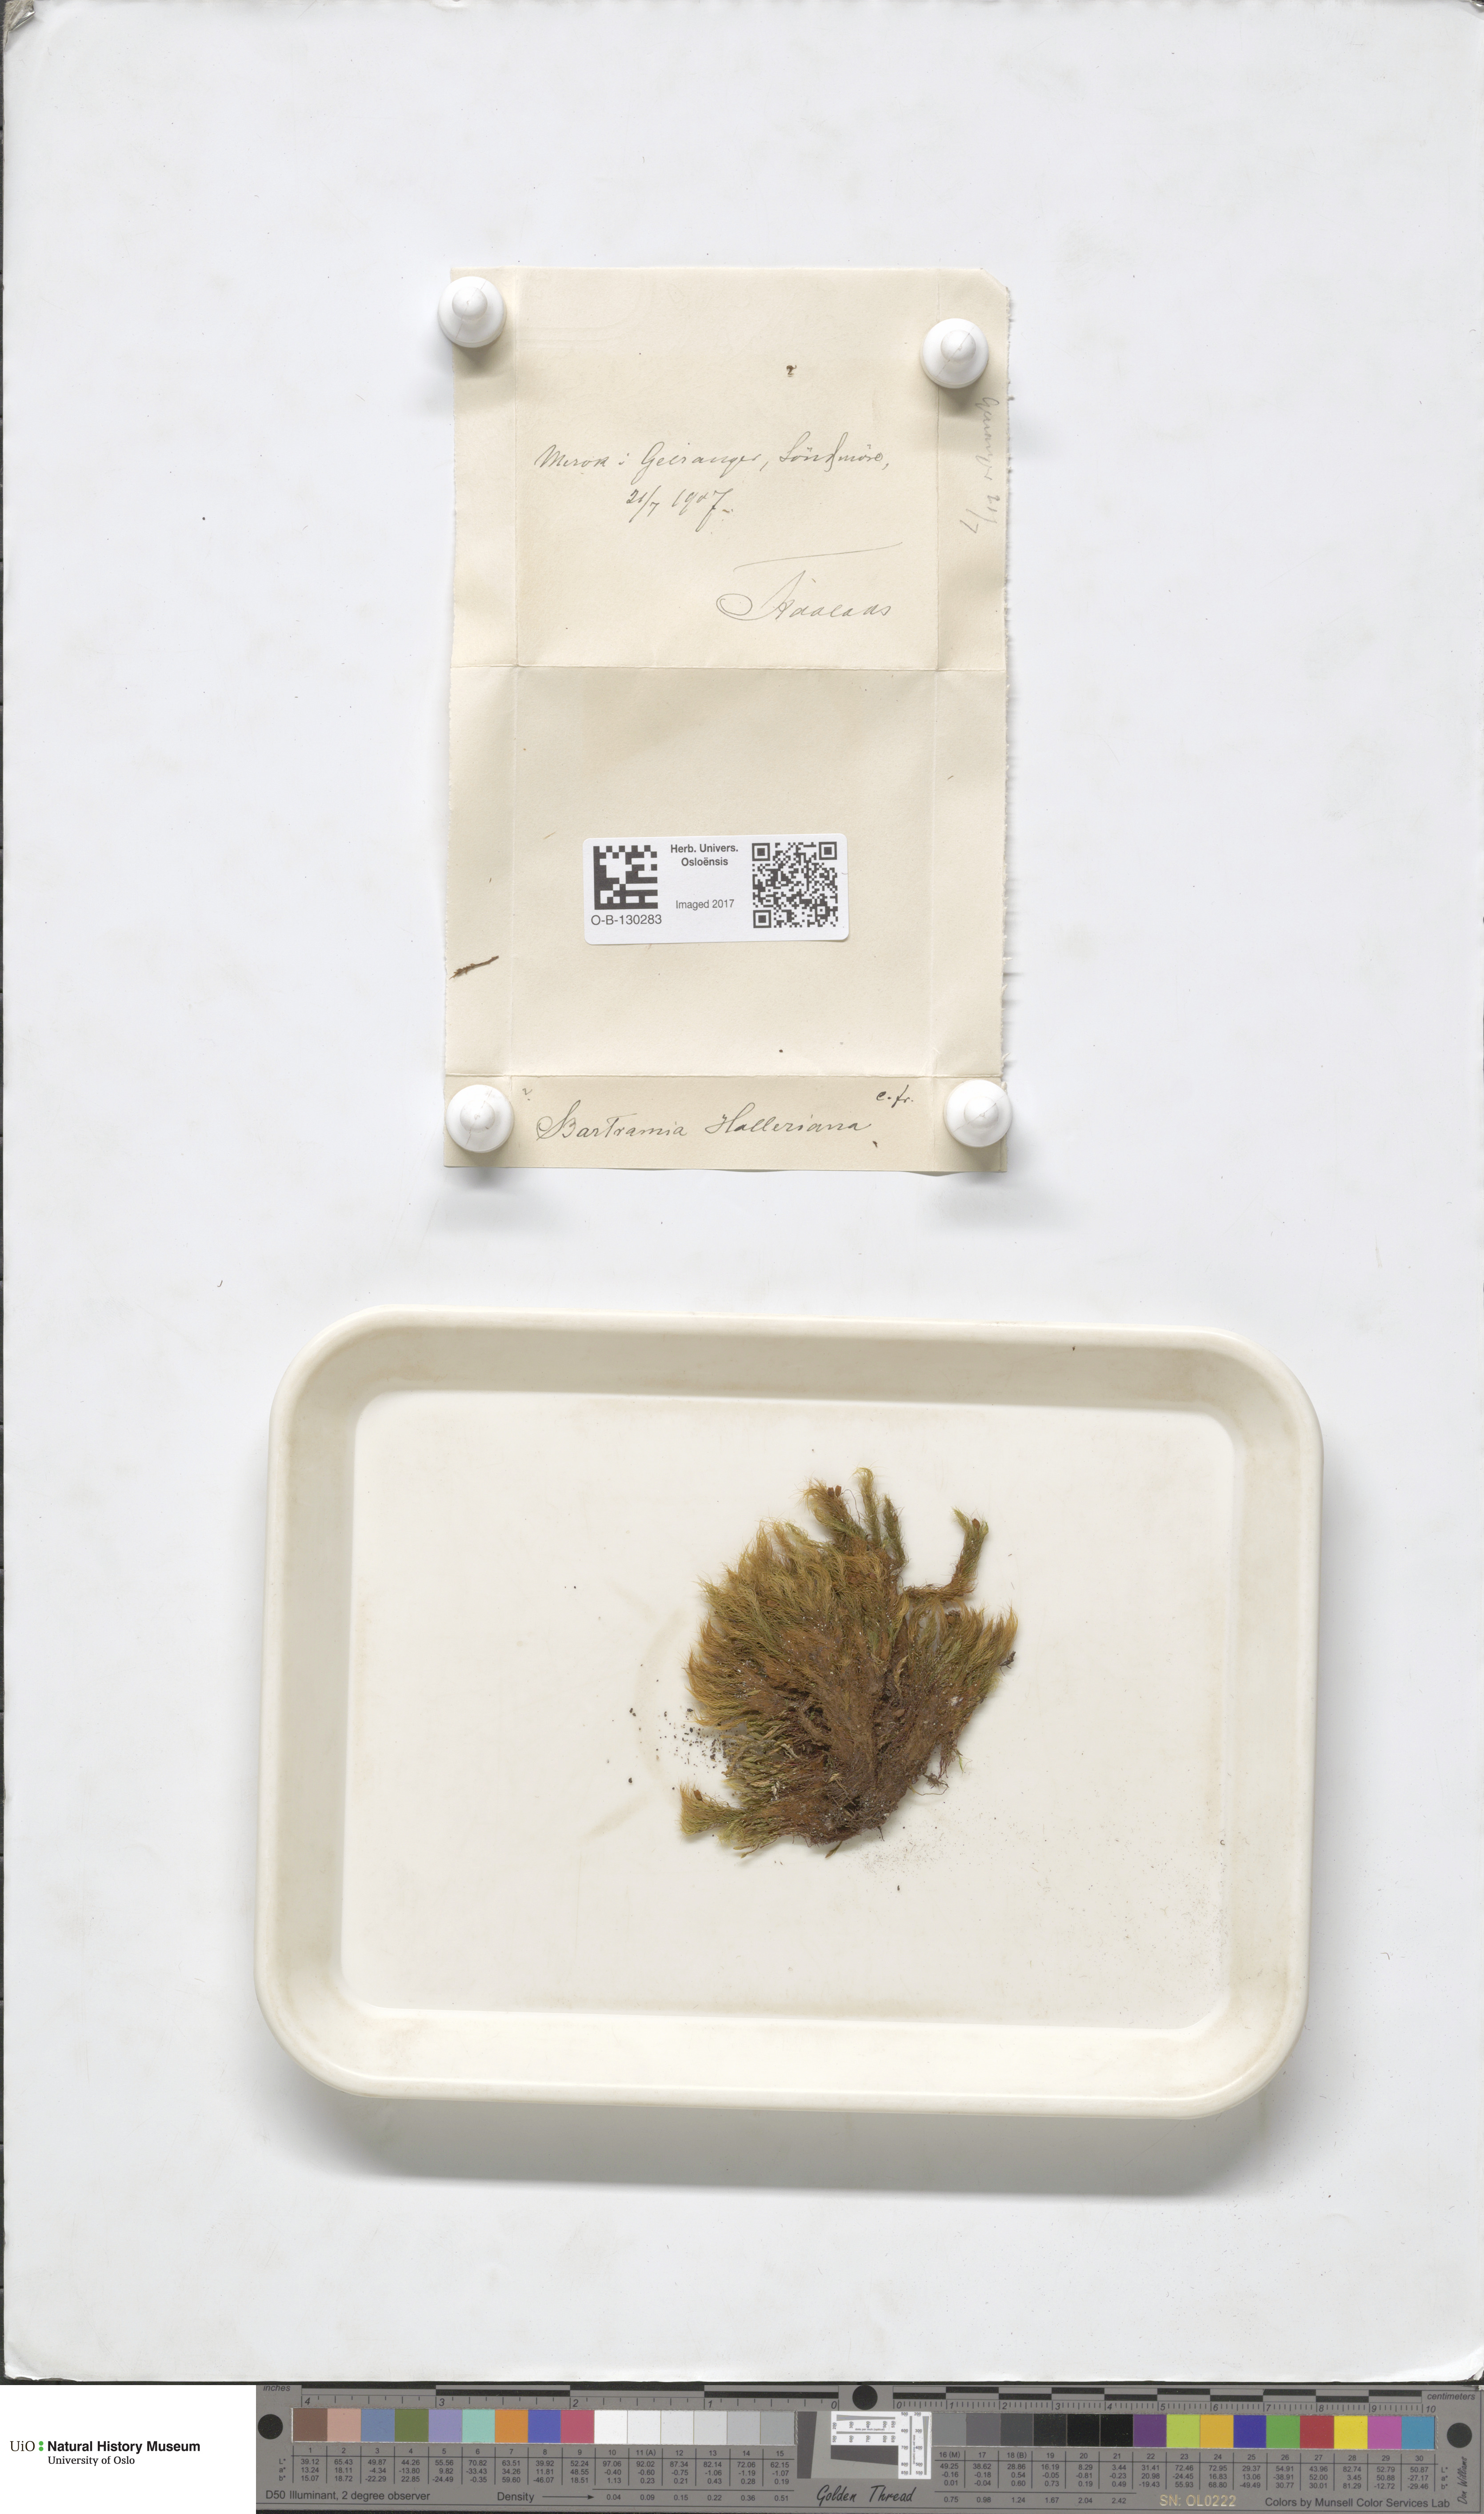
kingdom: Plantae
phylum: Bryophyta
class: Bryopsida
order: Bartramiales
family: Bartramiaceae
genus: Bartramia
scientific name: Bartramia halleriana
